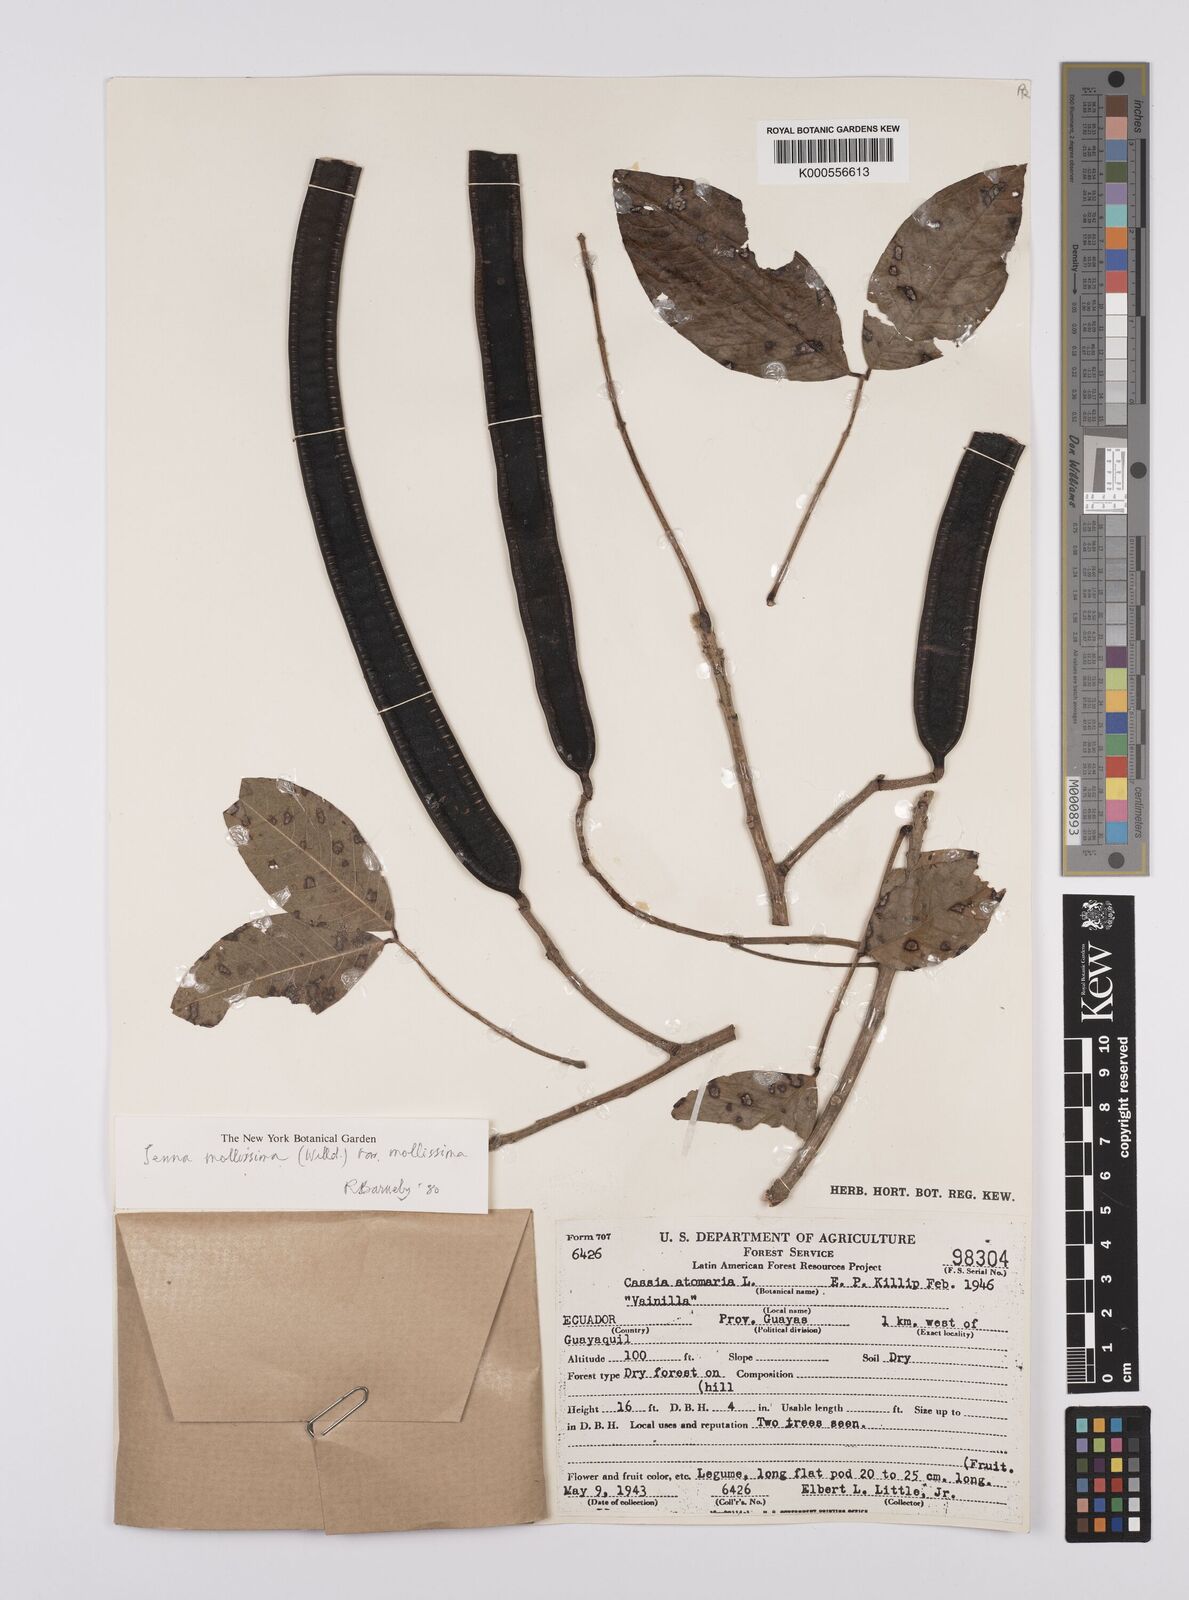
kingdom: Plantae
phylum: Tracheophyta
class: Magnoliopsida
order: Fabales
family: Fabaceae
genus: Senna
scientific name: Senna mollissima
